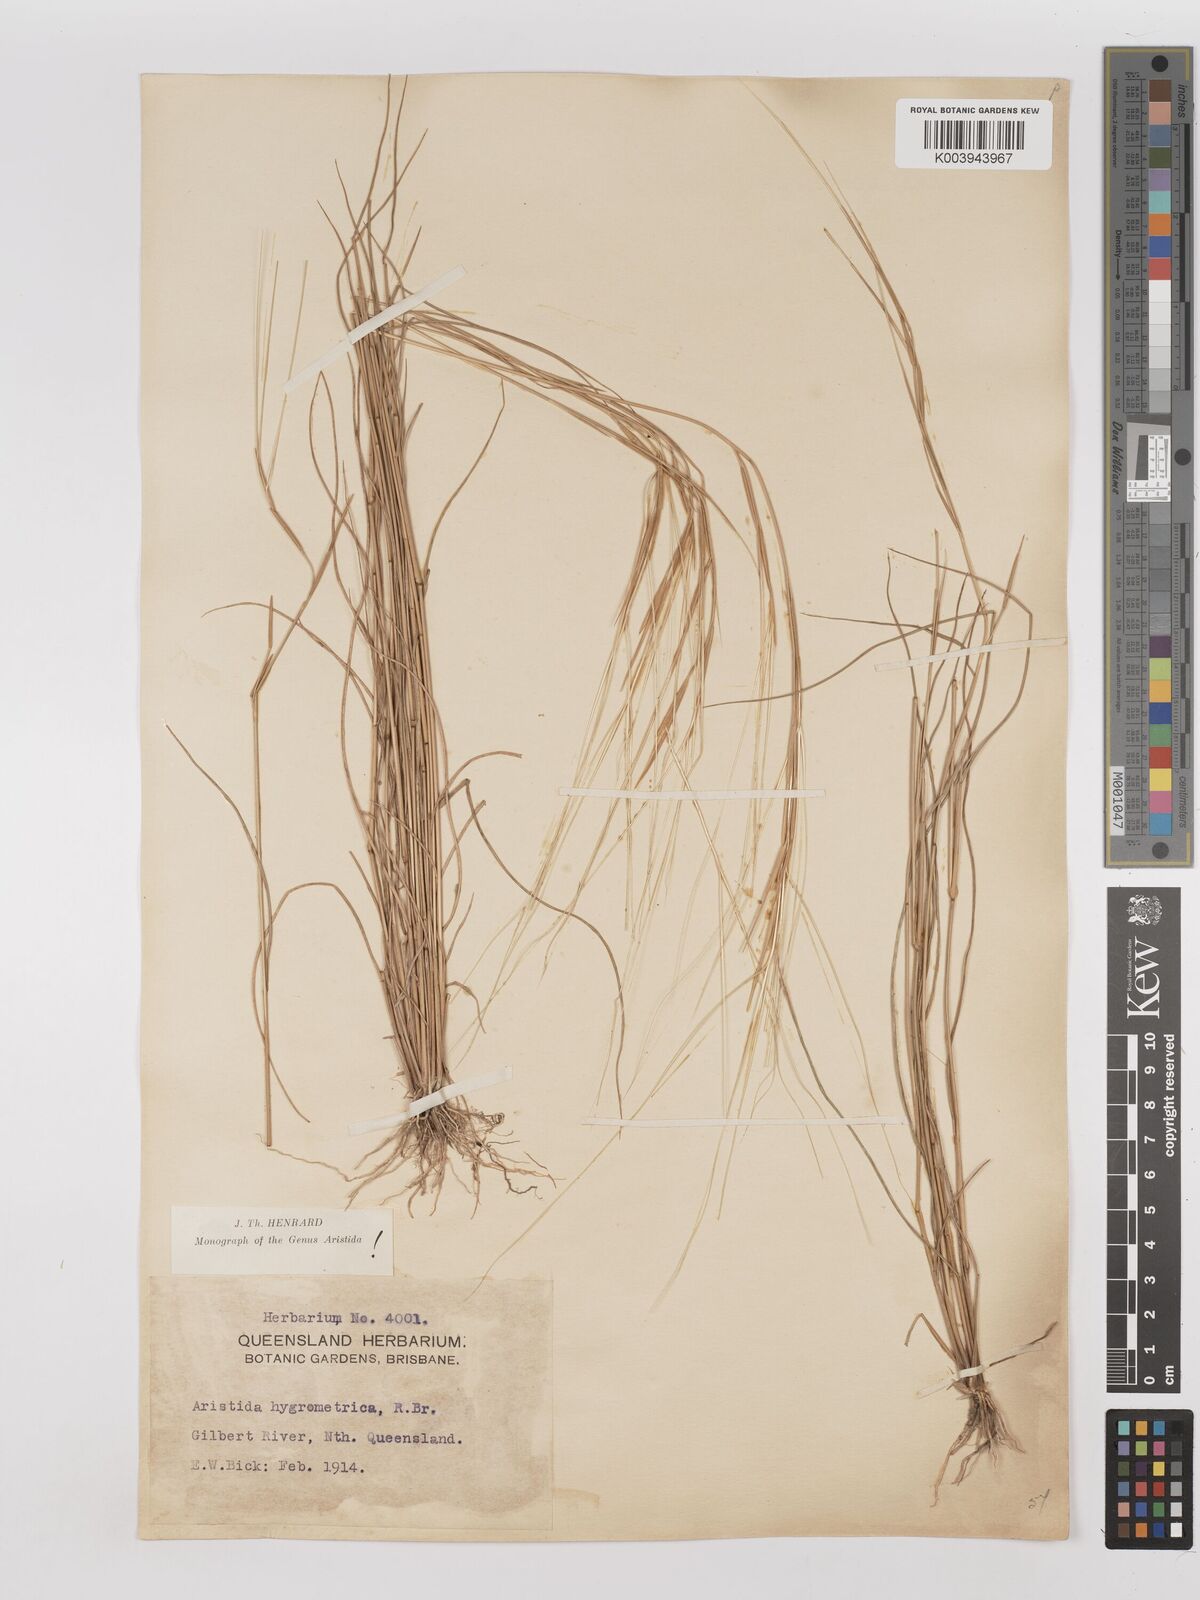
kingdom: Plantae
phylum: Tracheophyta
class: Liliopsida
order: Poales
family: Poaceae
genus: Aristida
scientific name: Aristida hygrometrica
